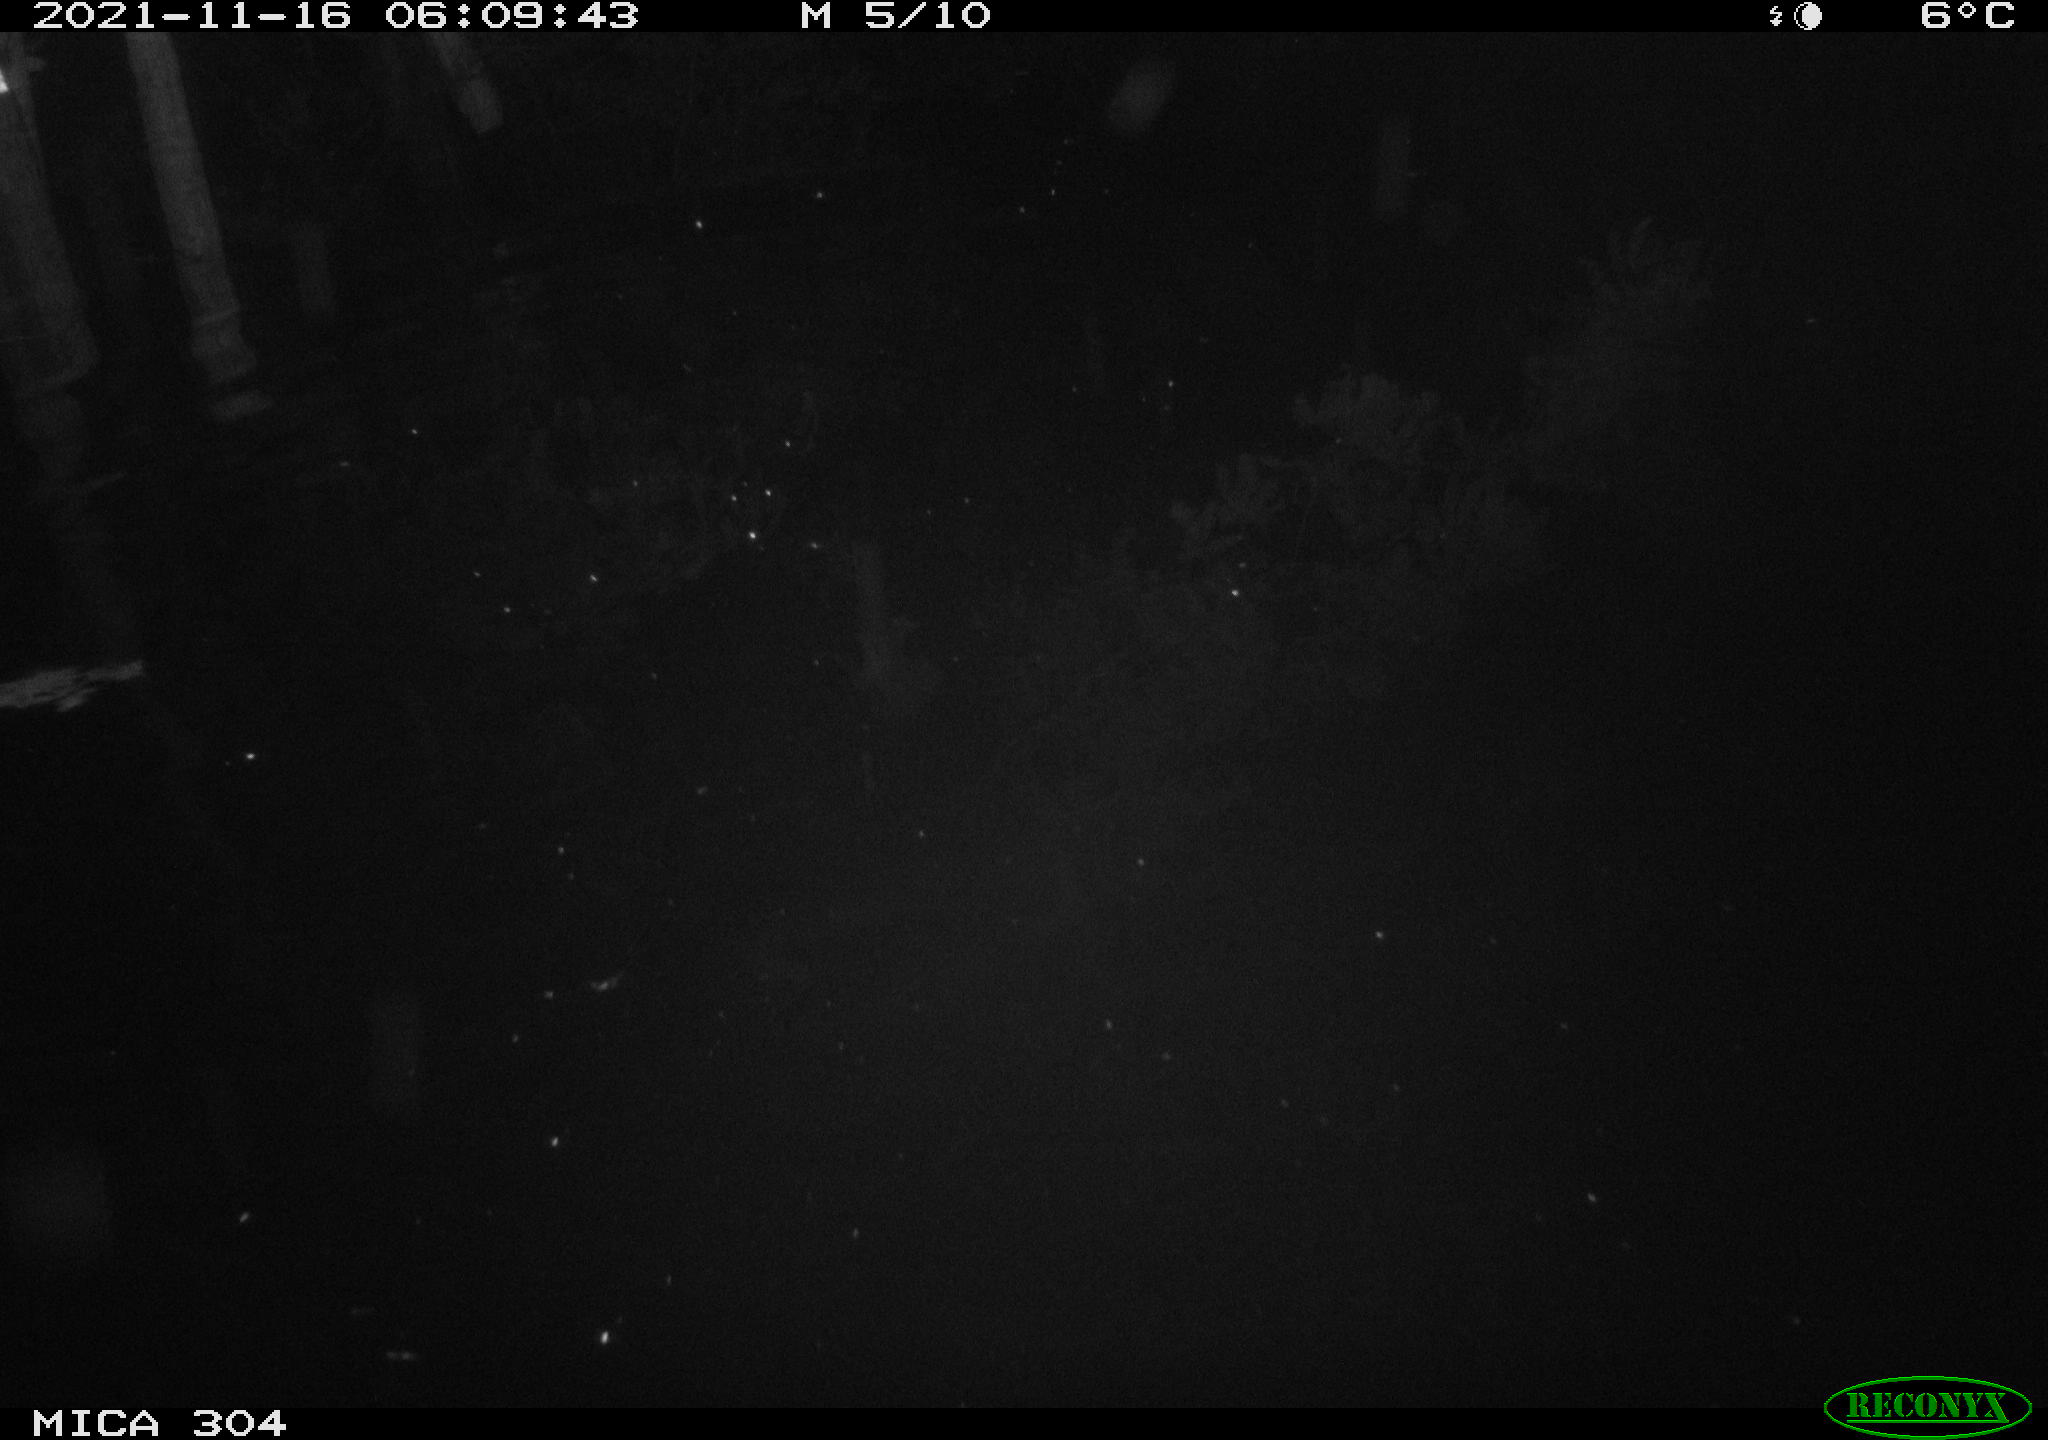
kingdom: Animalia
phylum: Chordata
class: Mammalia
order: Rodentia
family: Muridae
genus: Rattus
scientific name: Rattus norvegicus
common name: Brown rat
